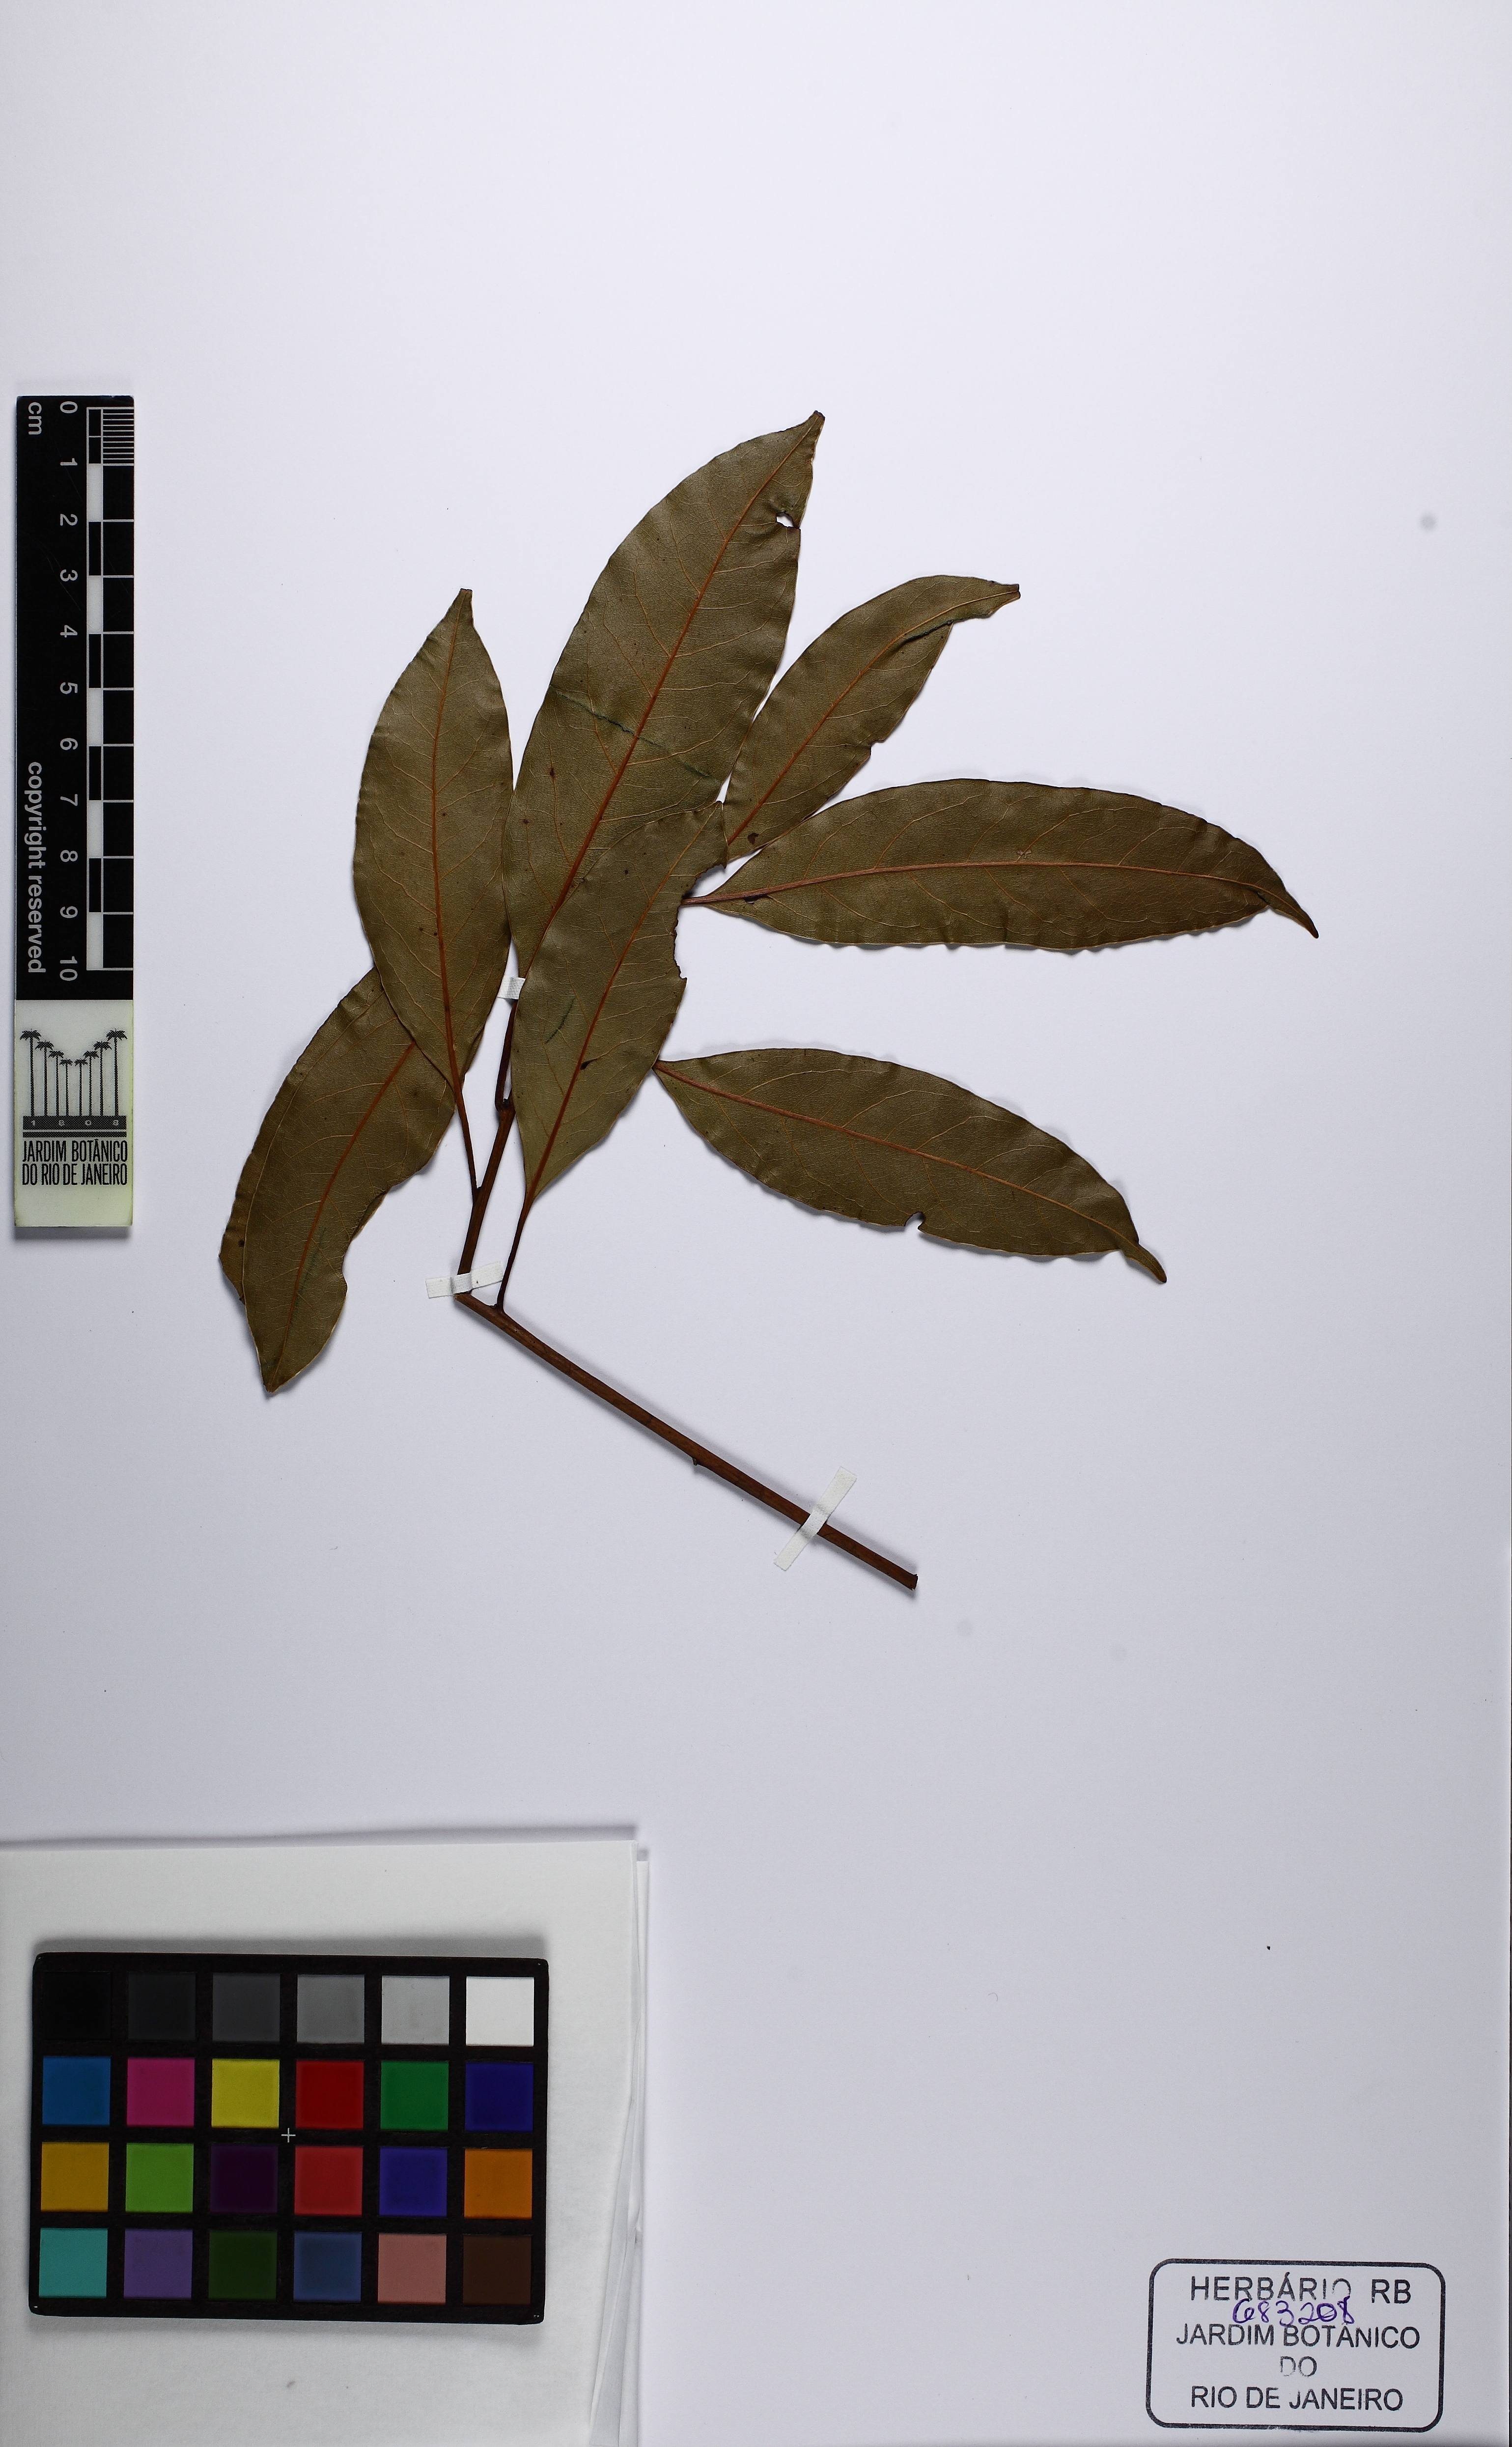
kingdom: Plantae
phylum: Tracheophyta
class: Magnoliopsida
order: Laurales
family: Lauraceae
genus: Ocotea
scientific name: Ocotea puberula
